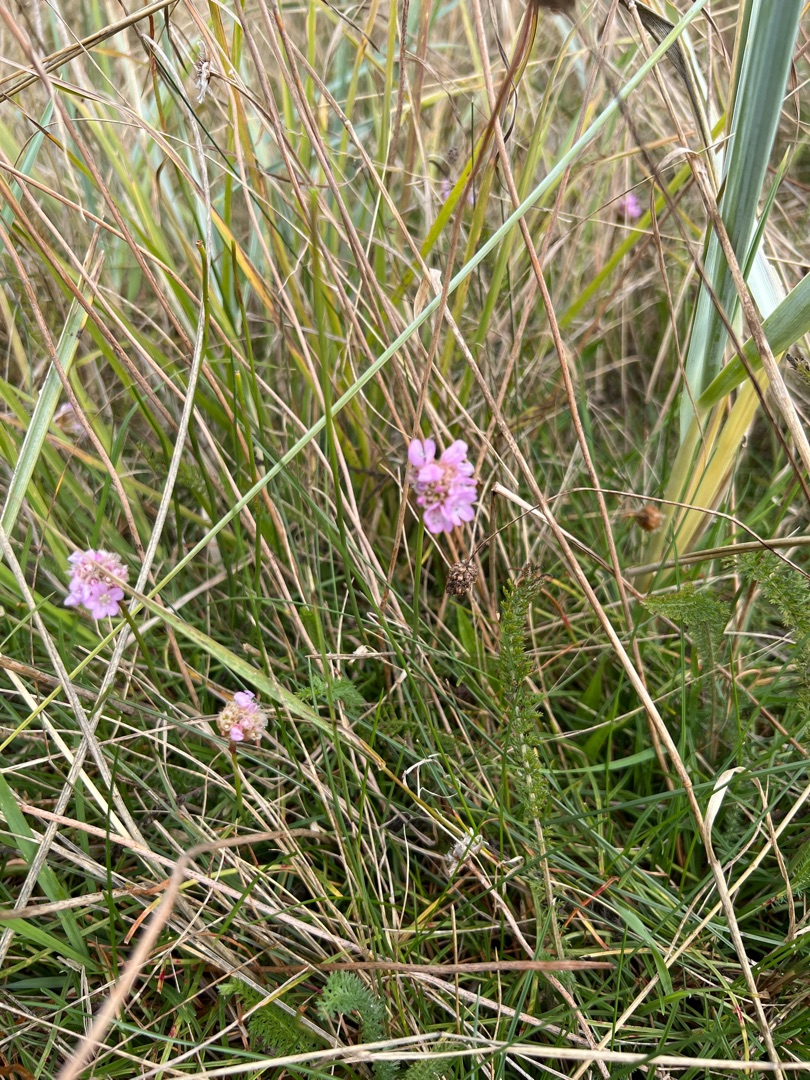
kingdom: Plantae
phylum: Tracheophyta
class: Magnoliopsida
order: Caryophyllales
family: Plumbaginaceae
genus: Armeria
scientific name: Armeria maritima
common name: Engelskgræs
